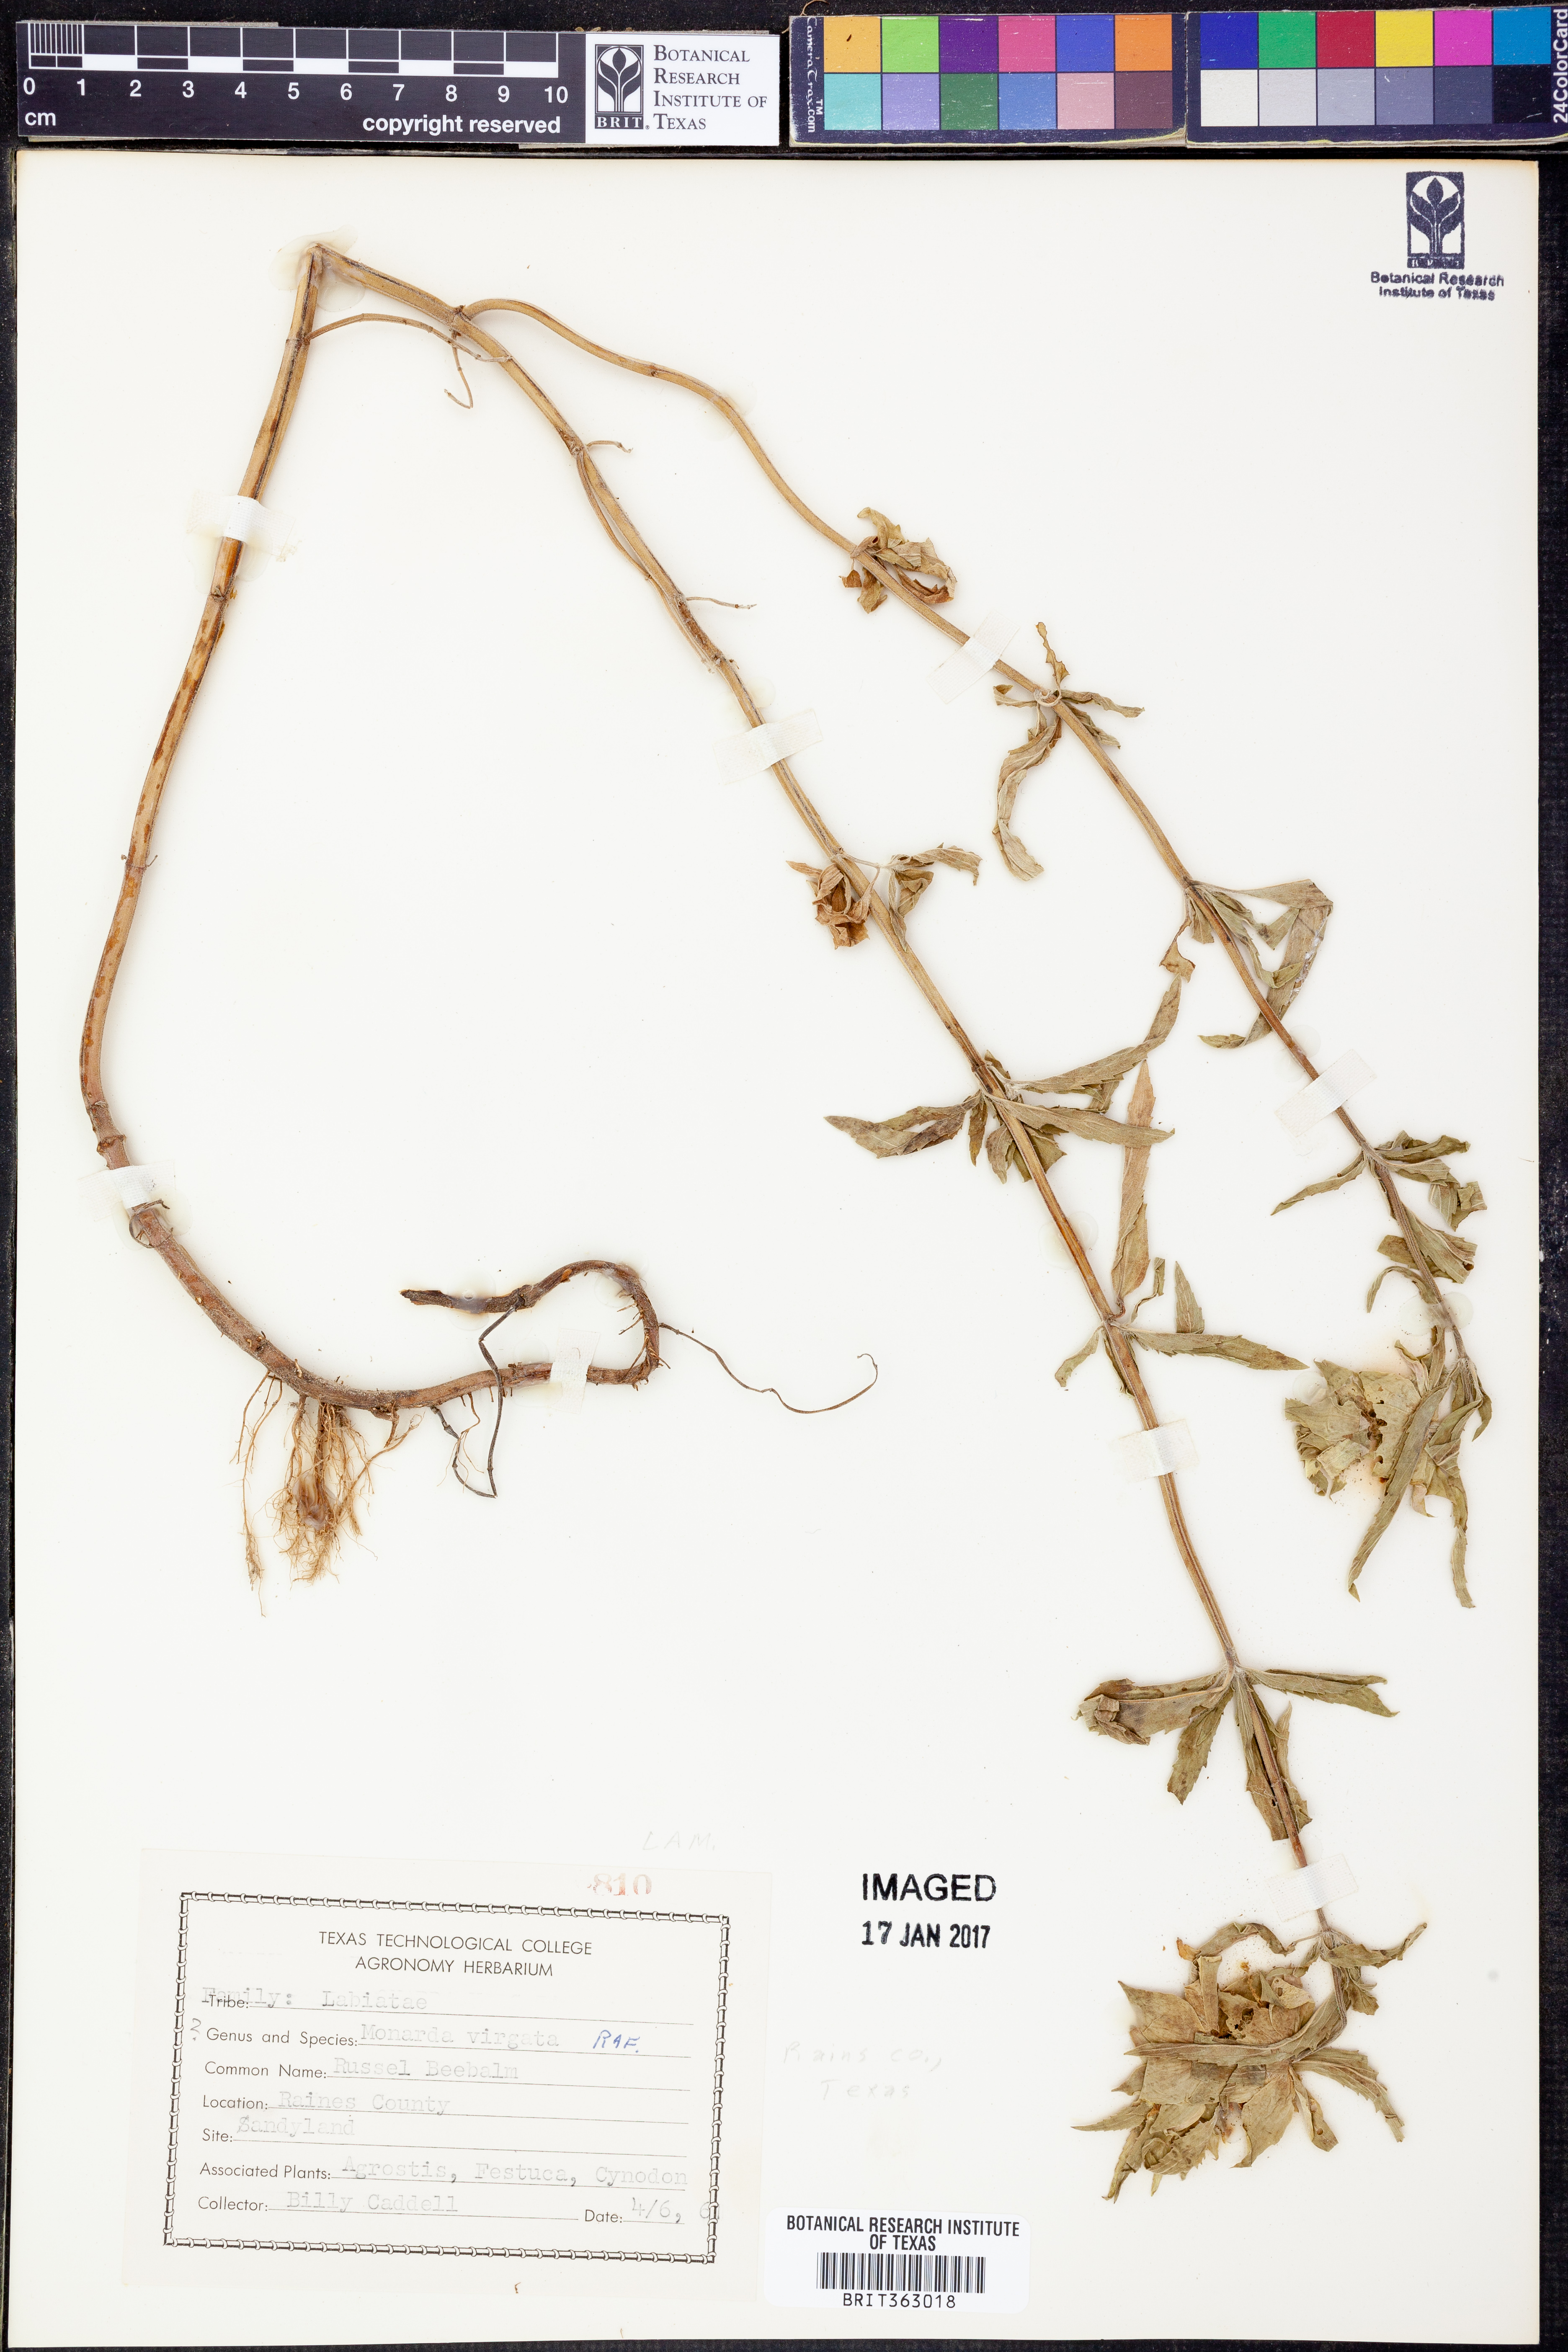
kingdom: Plantae
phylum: Tracheophyta
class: Magnoliopsida
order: Lamiales
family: Lamiaceae
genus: Monarda
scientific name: Monarda russeliana
